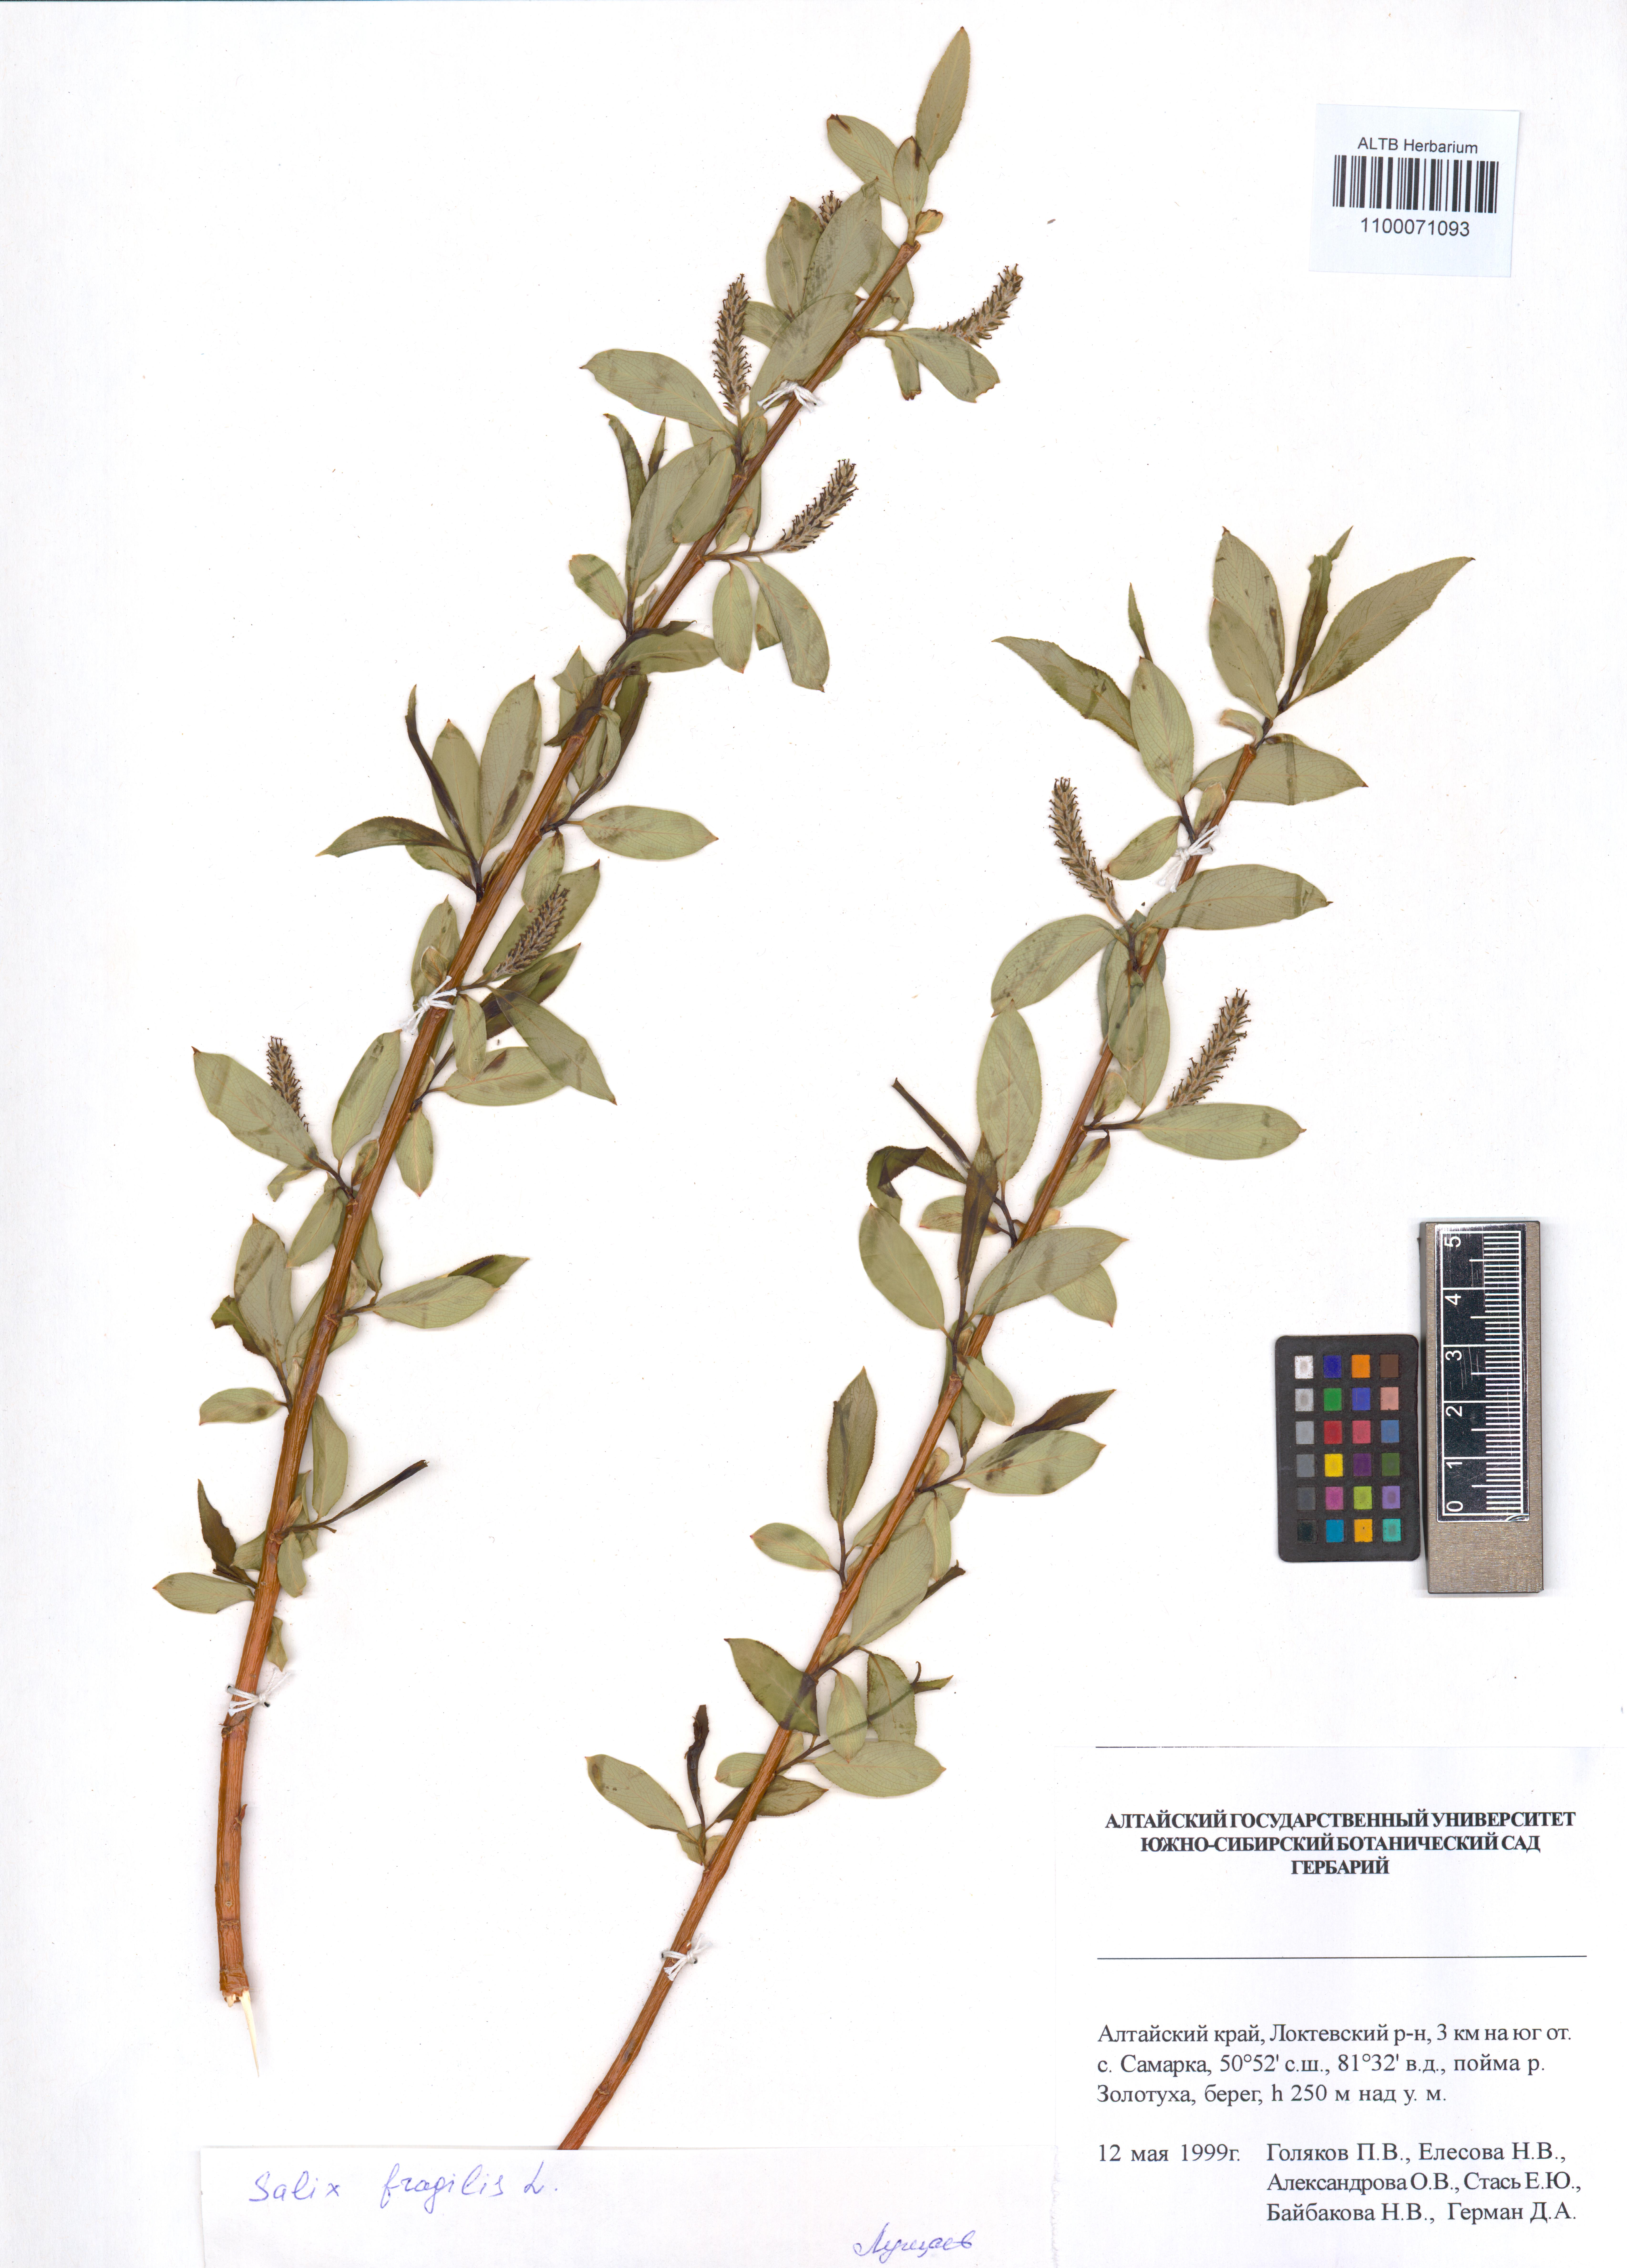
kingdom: Plantae
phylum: Tracheophyta
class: Magnoliopsida
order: Malpighiales
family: Salicaceae
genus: Salix
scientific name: Salix fragilis
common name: Crack willow
